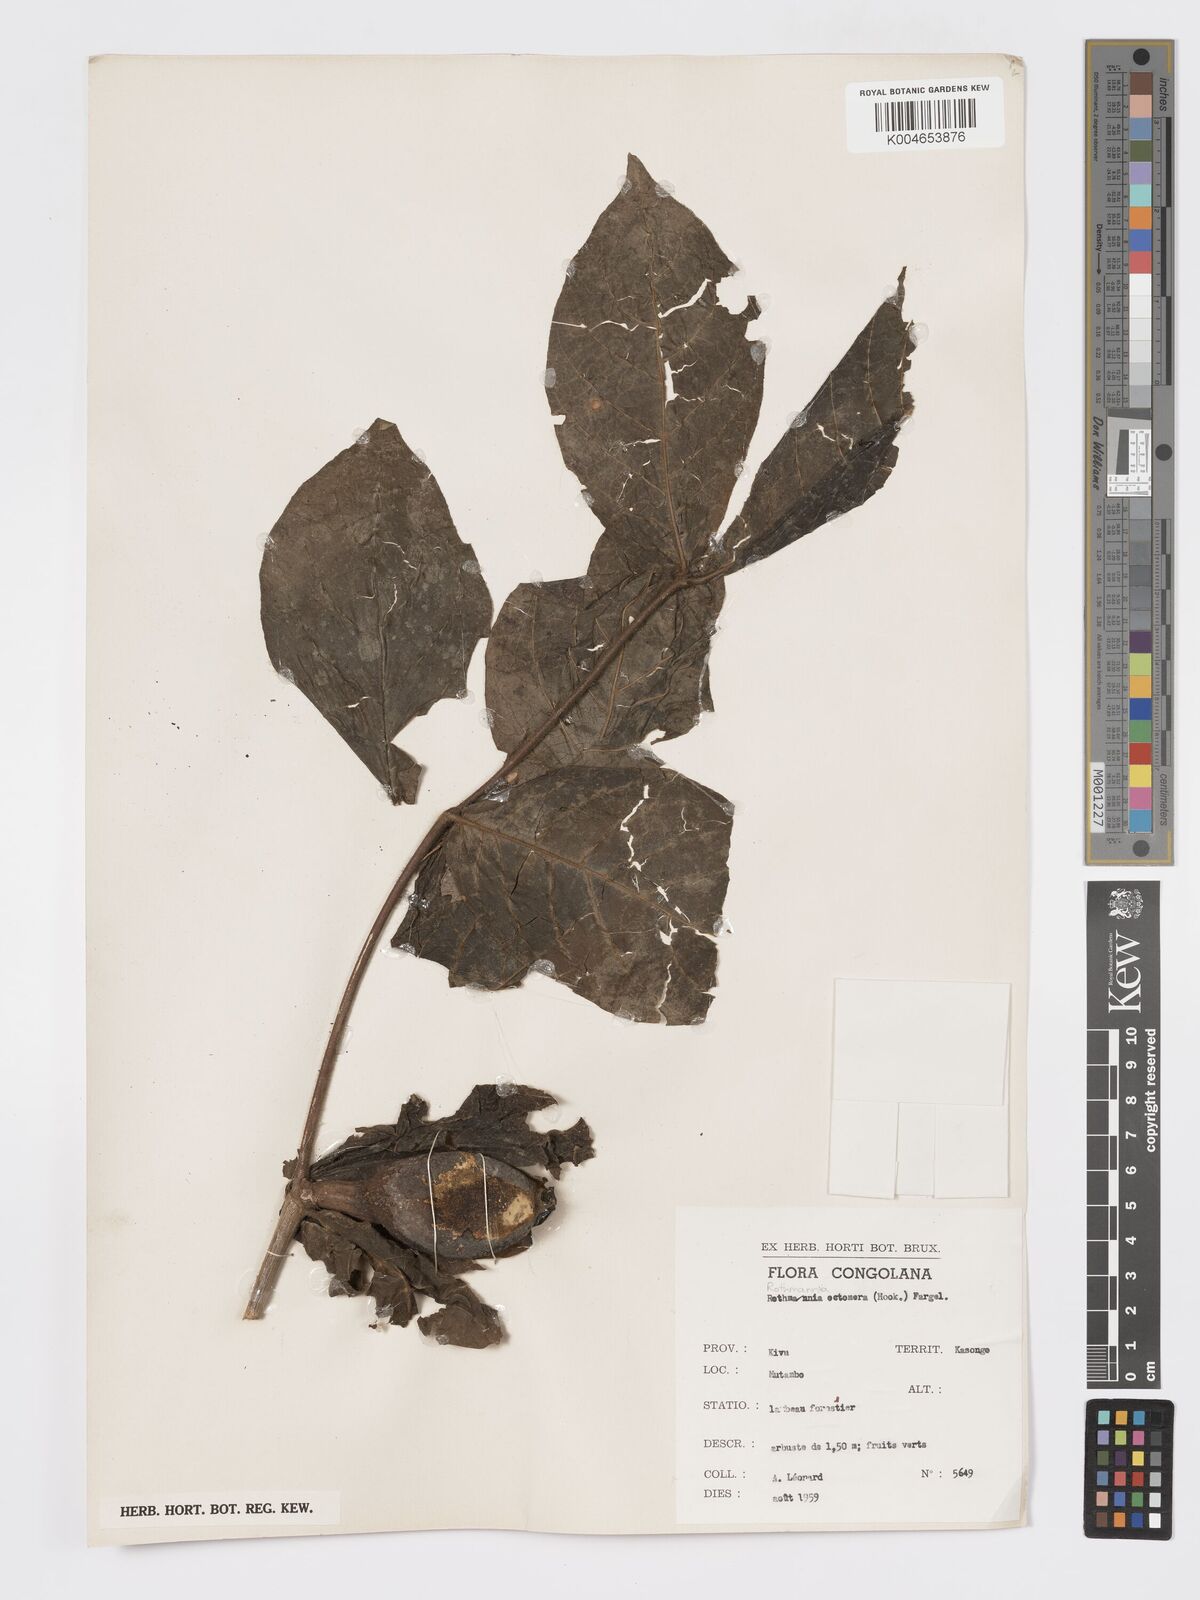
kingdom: Plantae
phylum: Tracheophyta
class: Magnoliopsida
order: Gentianales
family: Rubiaceae
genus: Rothmannia
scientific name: Rothmannia octomera
